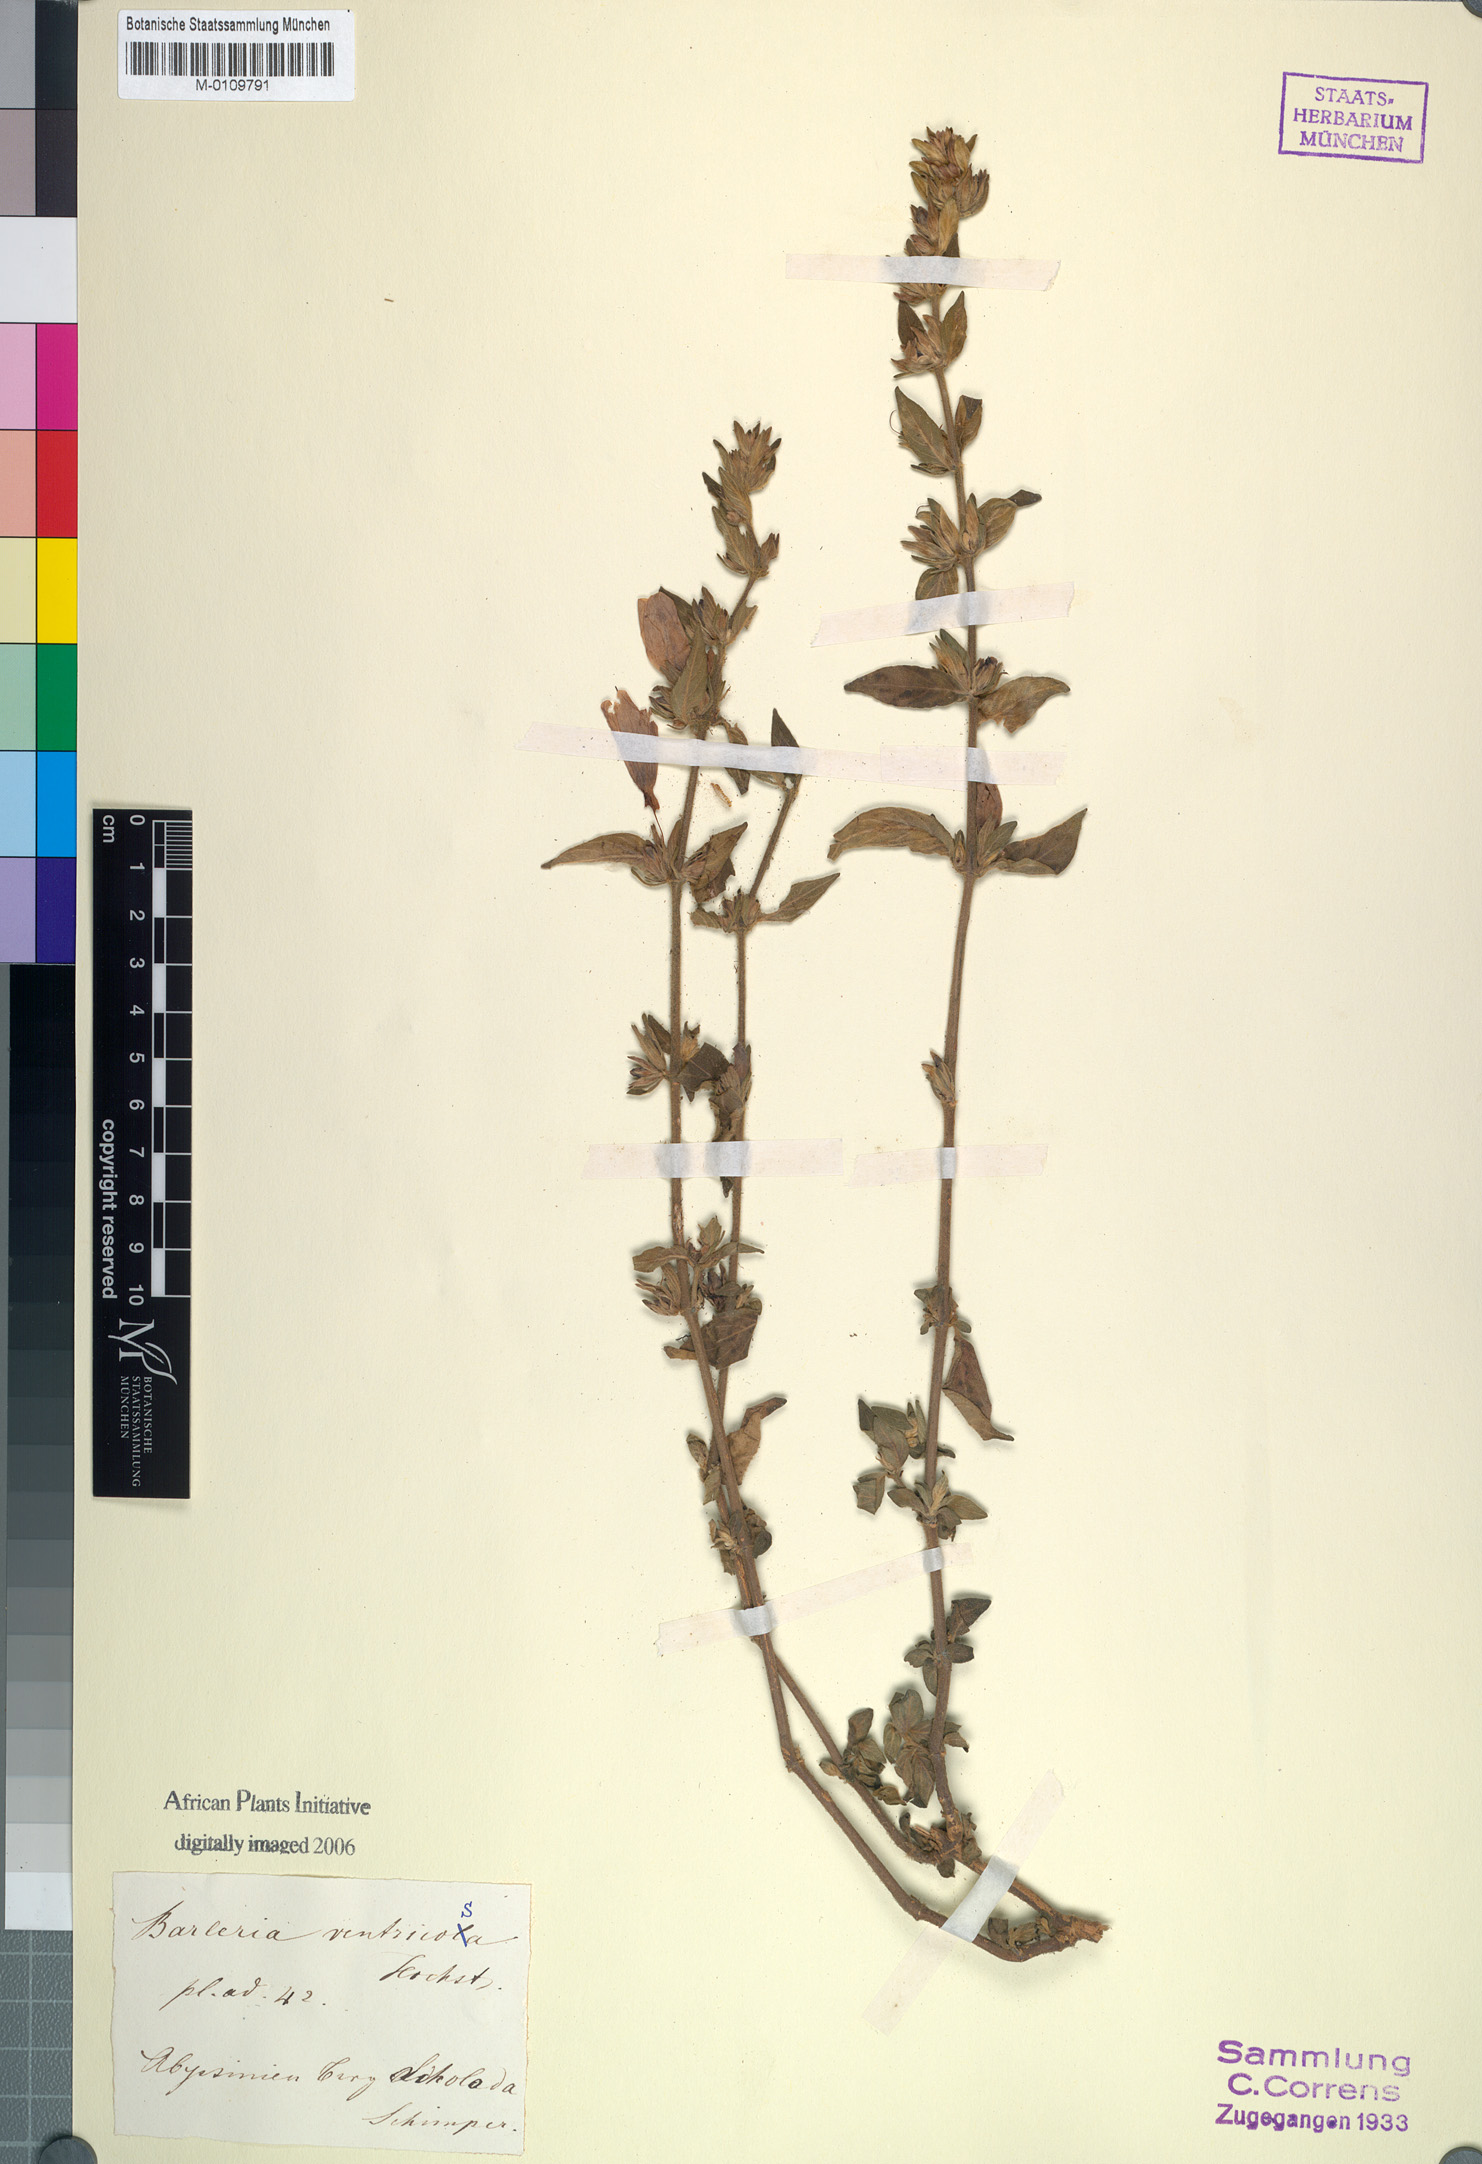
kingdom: Plantae
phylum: Tracheophyta
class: Magnoliopsida
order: Lamiales
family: Acanthaceae
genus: Barleria
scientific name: Barleria ventricosa
